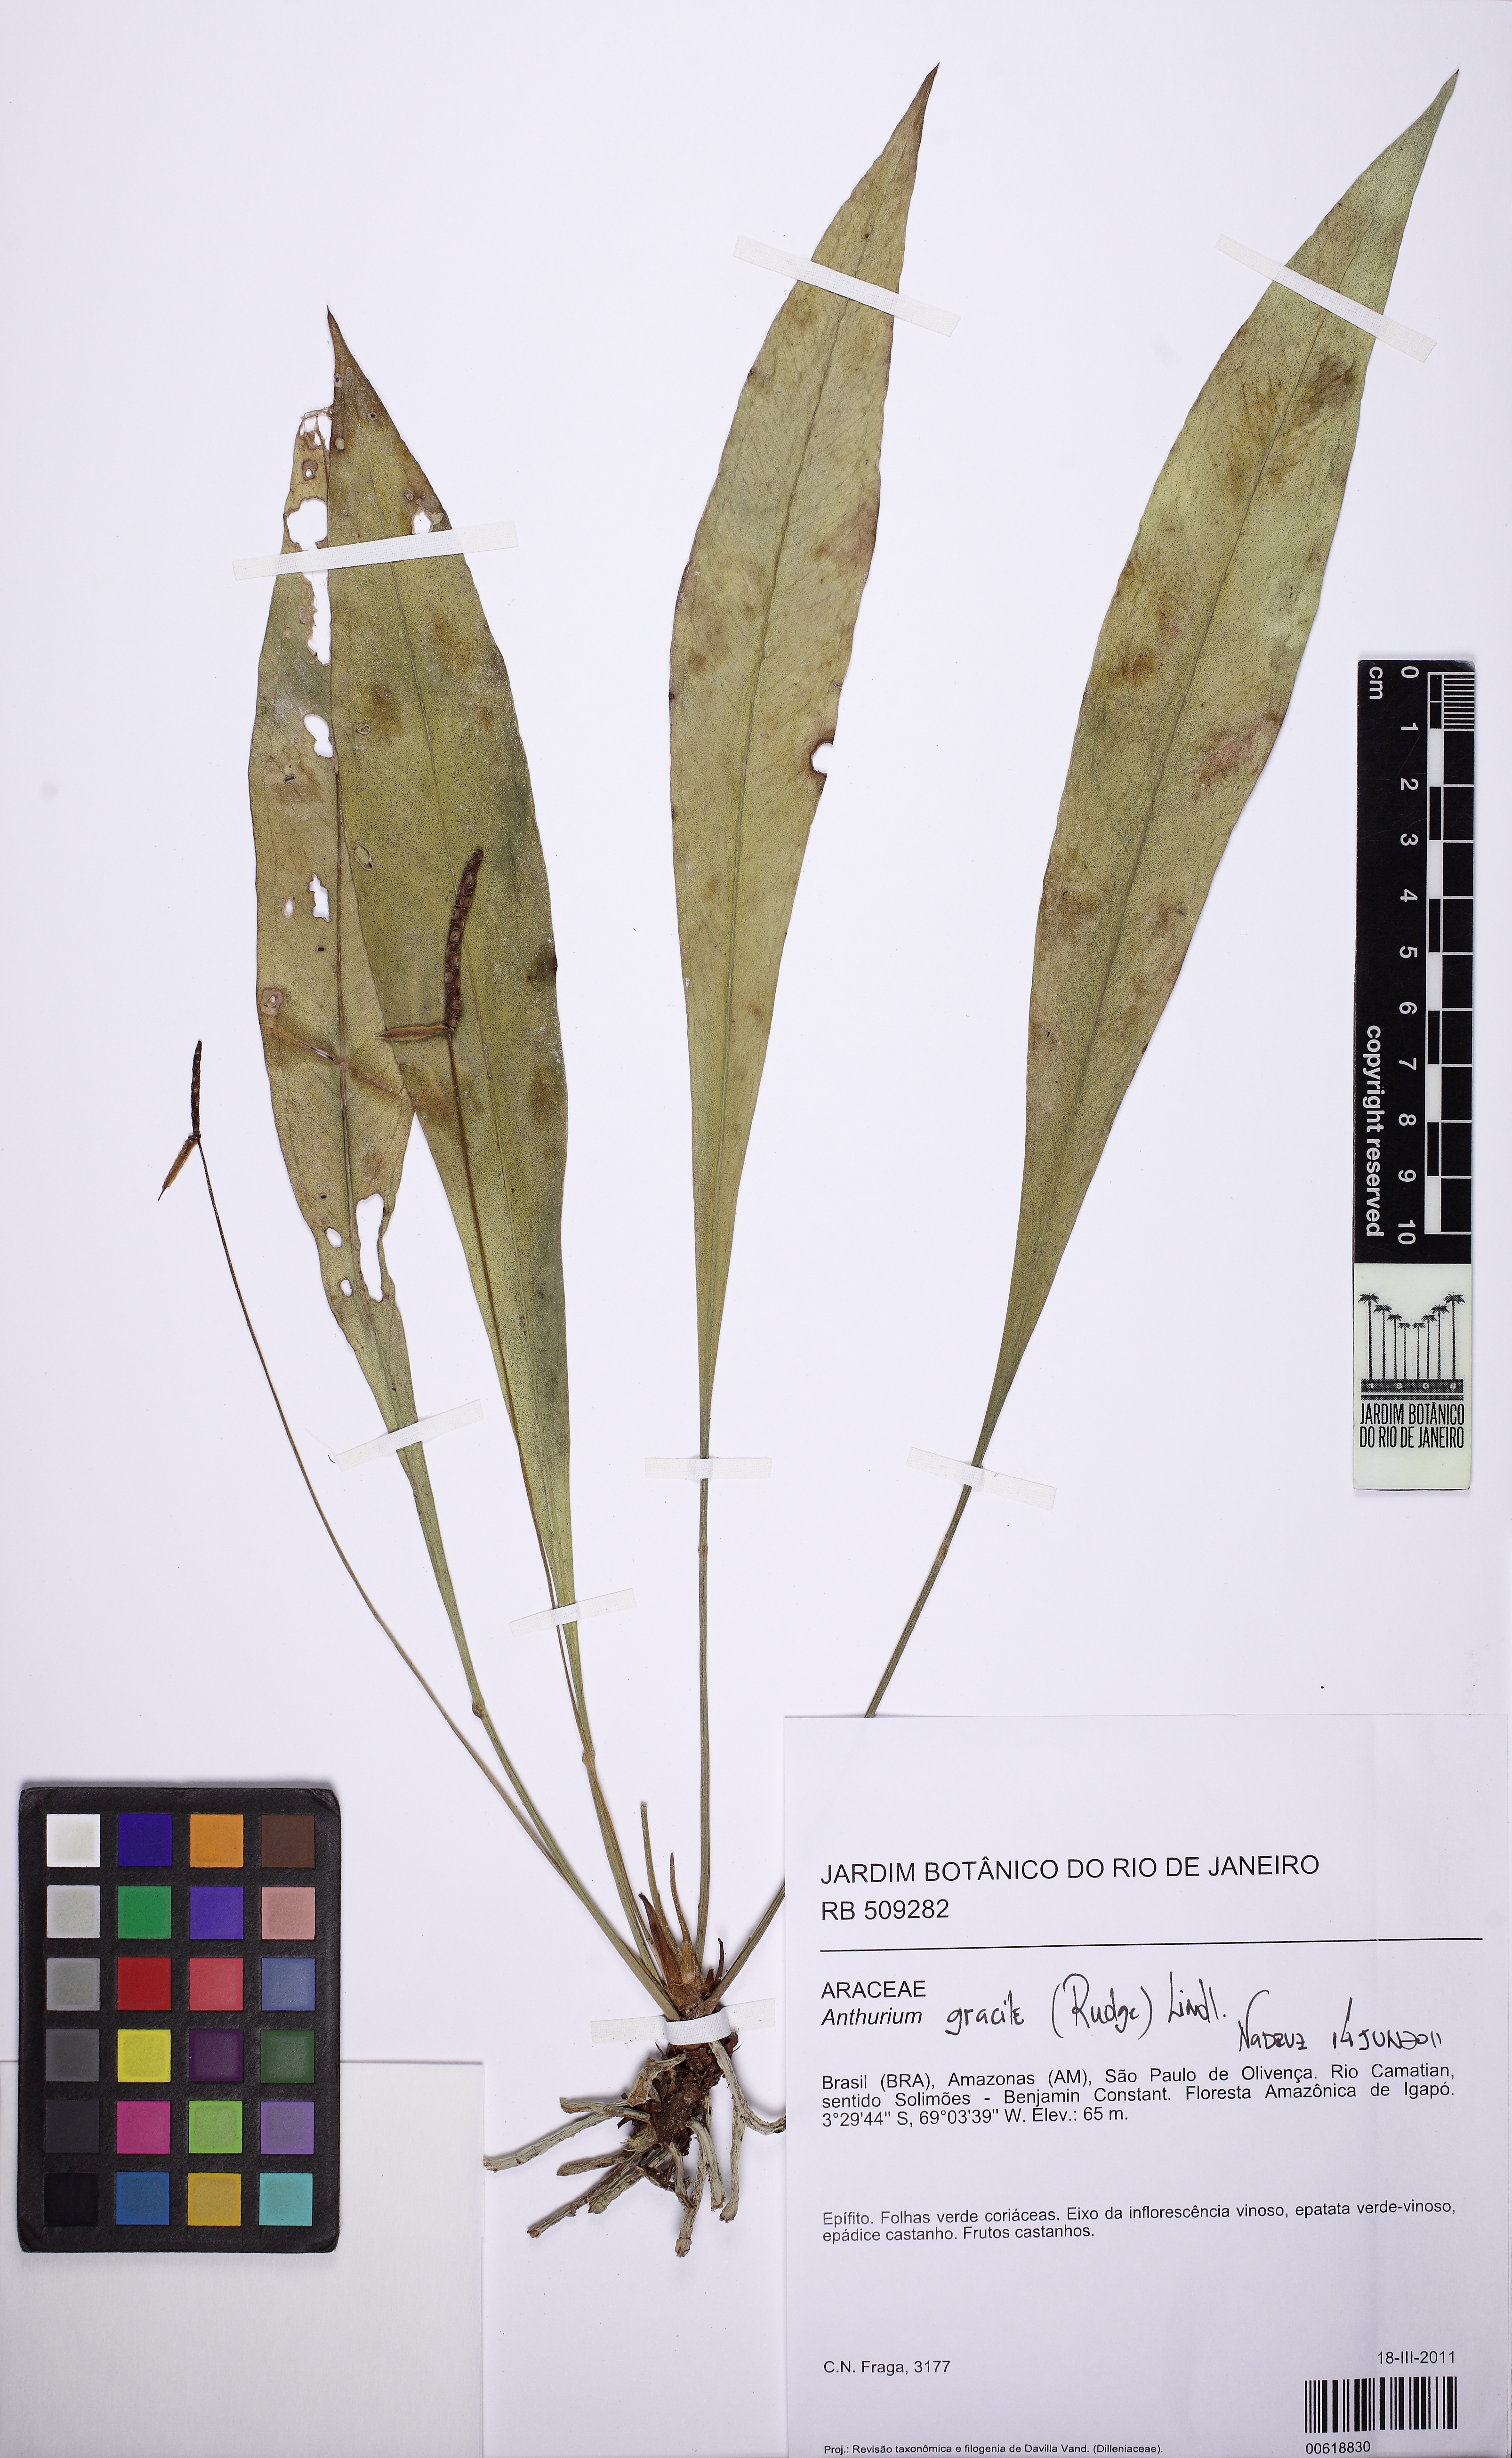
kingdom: Plantae
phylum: Tracheophyta
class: Liliopsida
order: Alismatales
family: Araceae
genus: Anthurium
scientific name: Anthurium gracile
